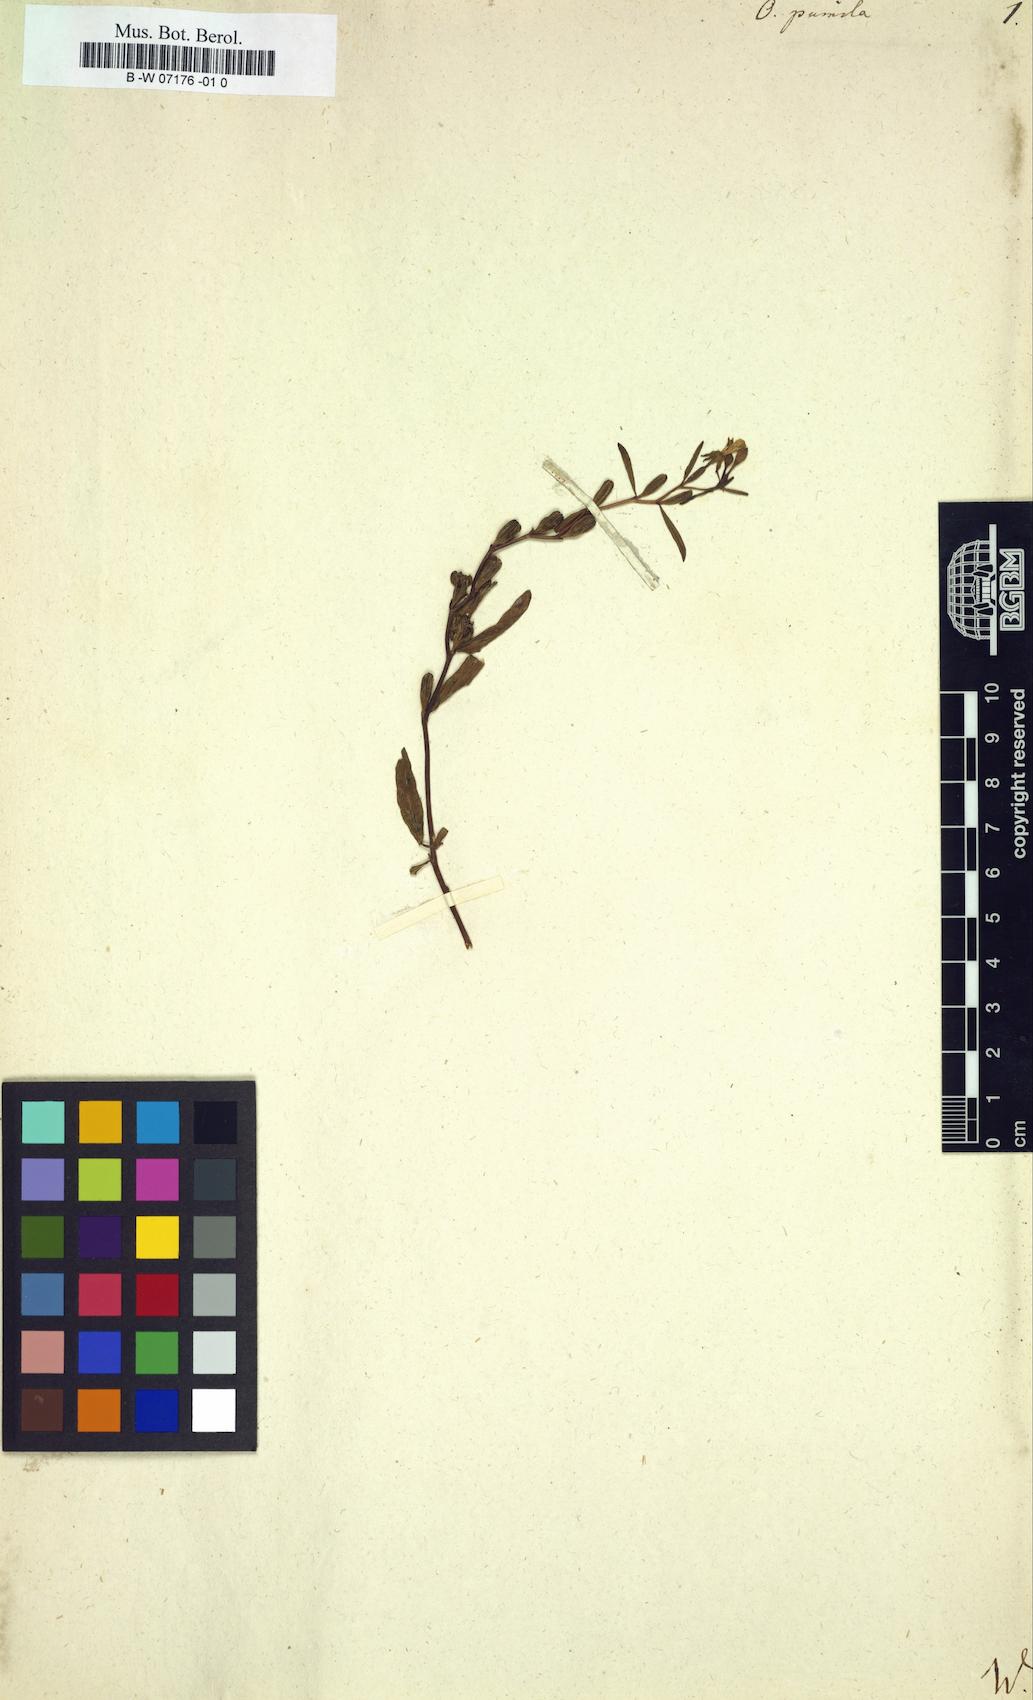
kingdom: Plantae
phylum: Tracheophyta
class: Magnoliopsida
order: Myrtales
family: Onagraceae
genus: Oenothera
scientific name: Oenothera perennis
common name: Small sundrops
